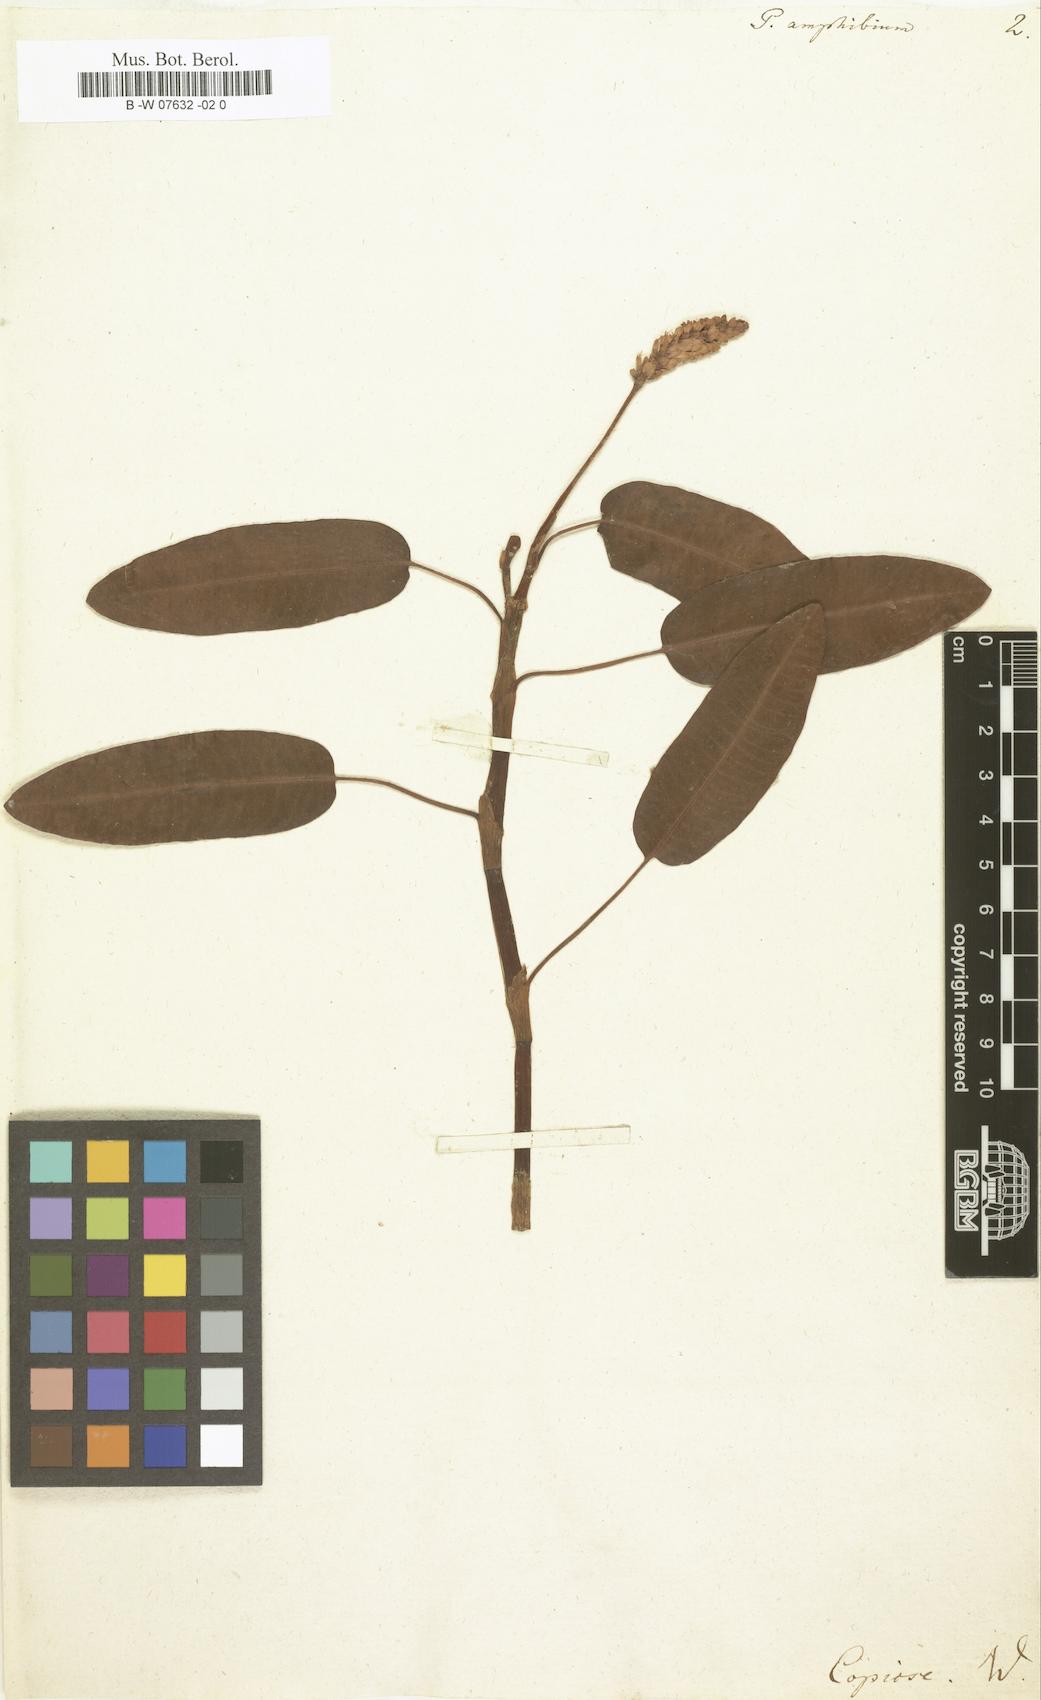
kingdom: Plantae
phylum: Tracheophyta
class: Magnoliopsida
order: Caryophyllales
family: Polygonaceae
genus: Persicaria
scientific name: Persicaria amphibia
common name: Amphibious bistort
